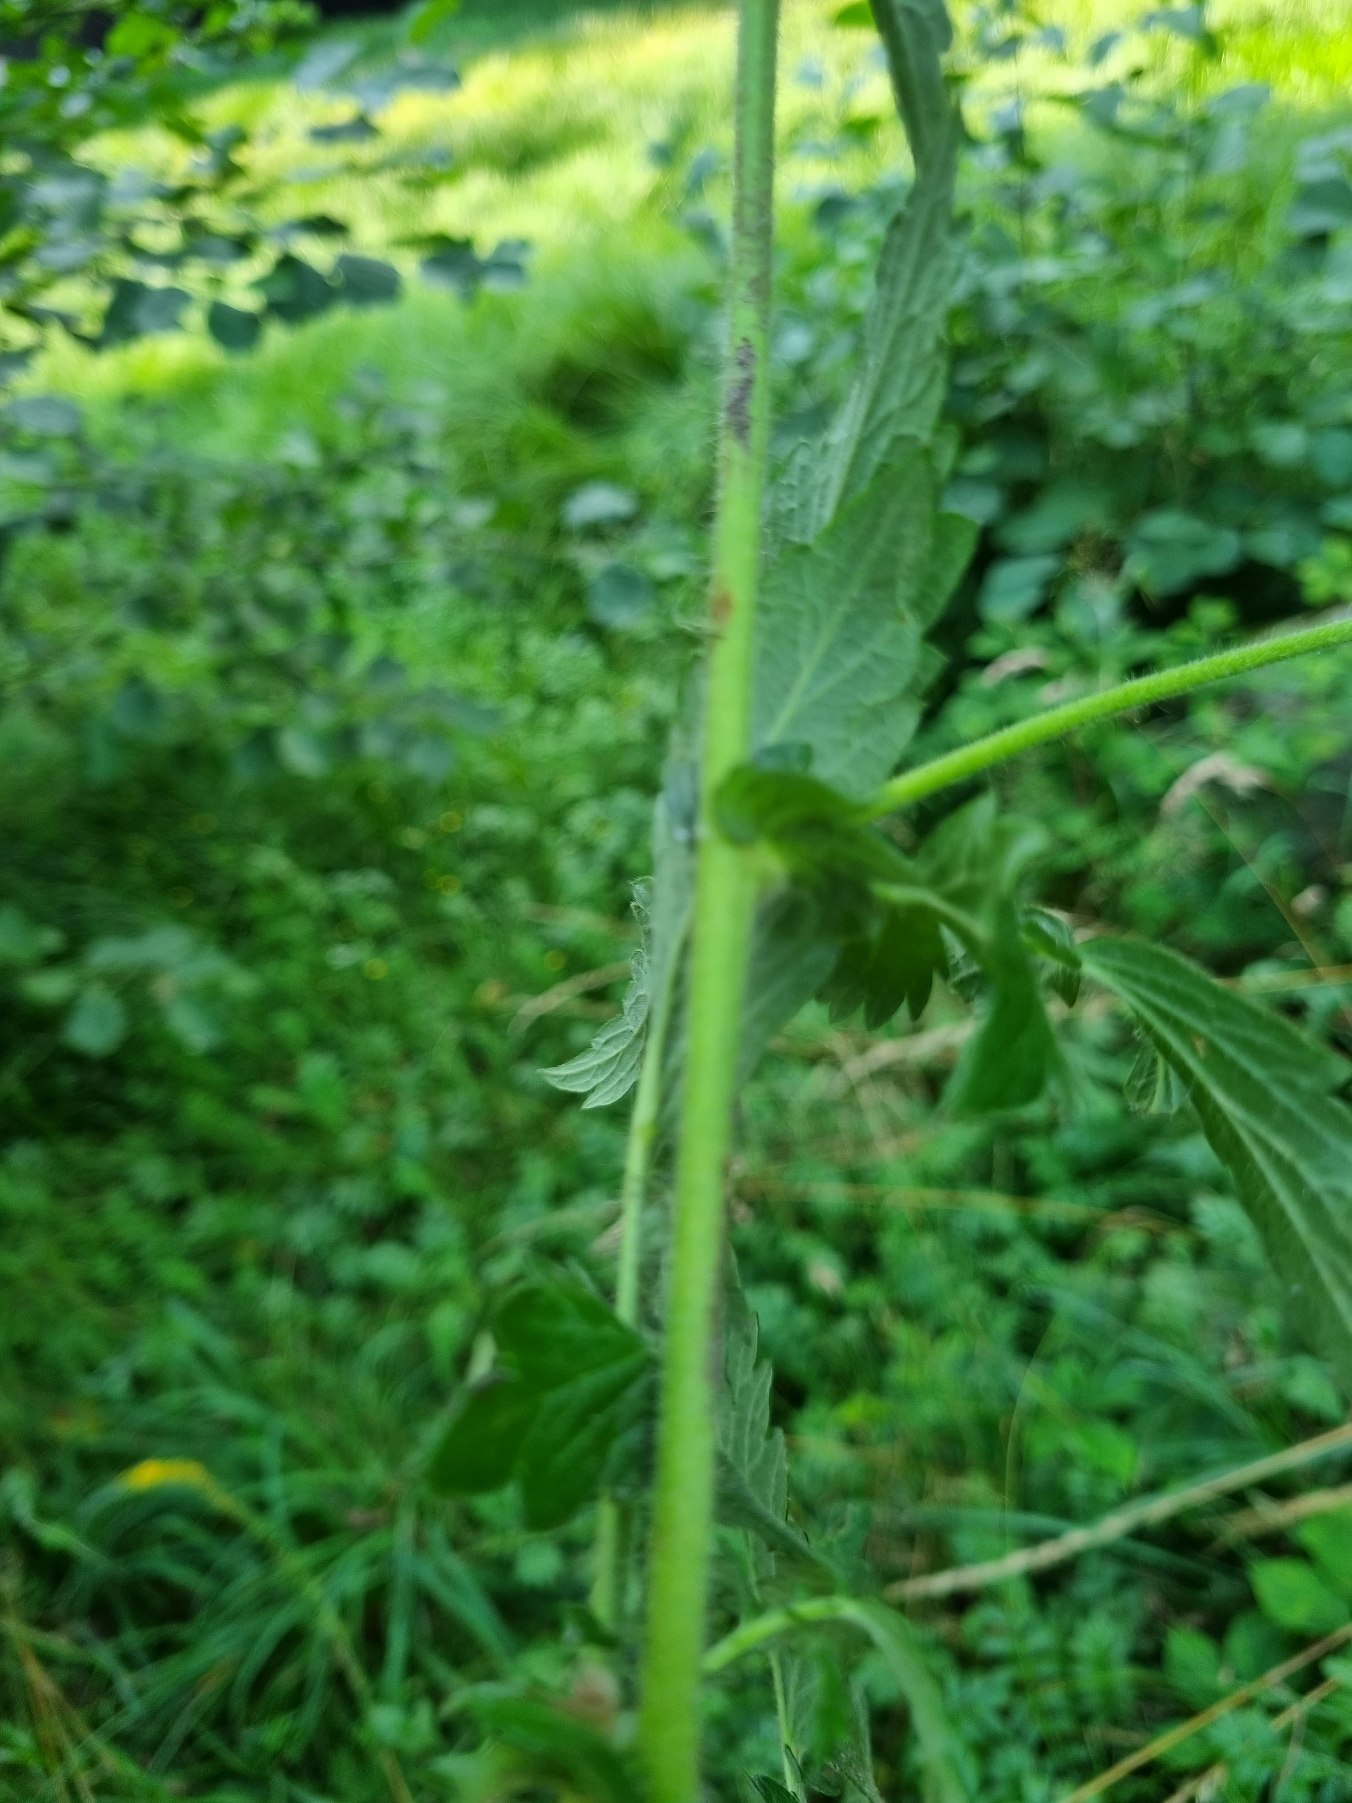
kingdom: Plantae
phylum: Tracheophyta
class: Magnoliopsida
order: Rosales
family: Rosaceae
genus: Agrimonia
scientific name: Agrimonia eupatoria
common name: Almindelig agermåne
